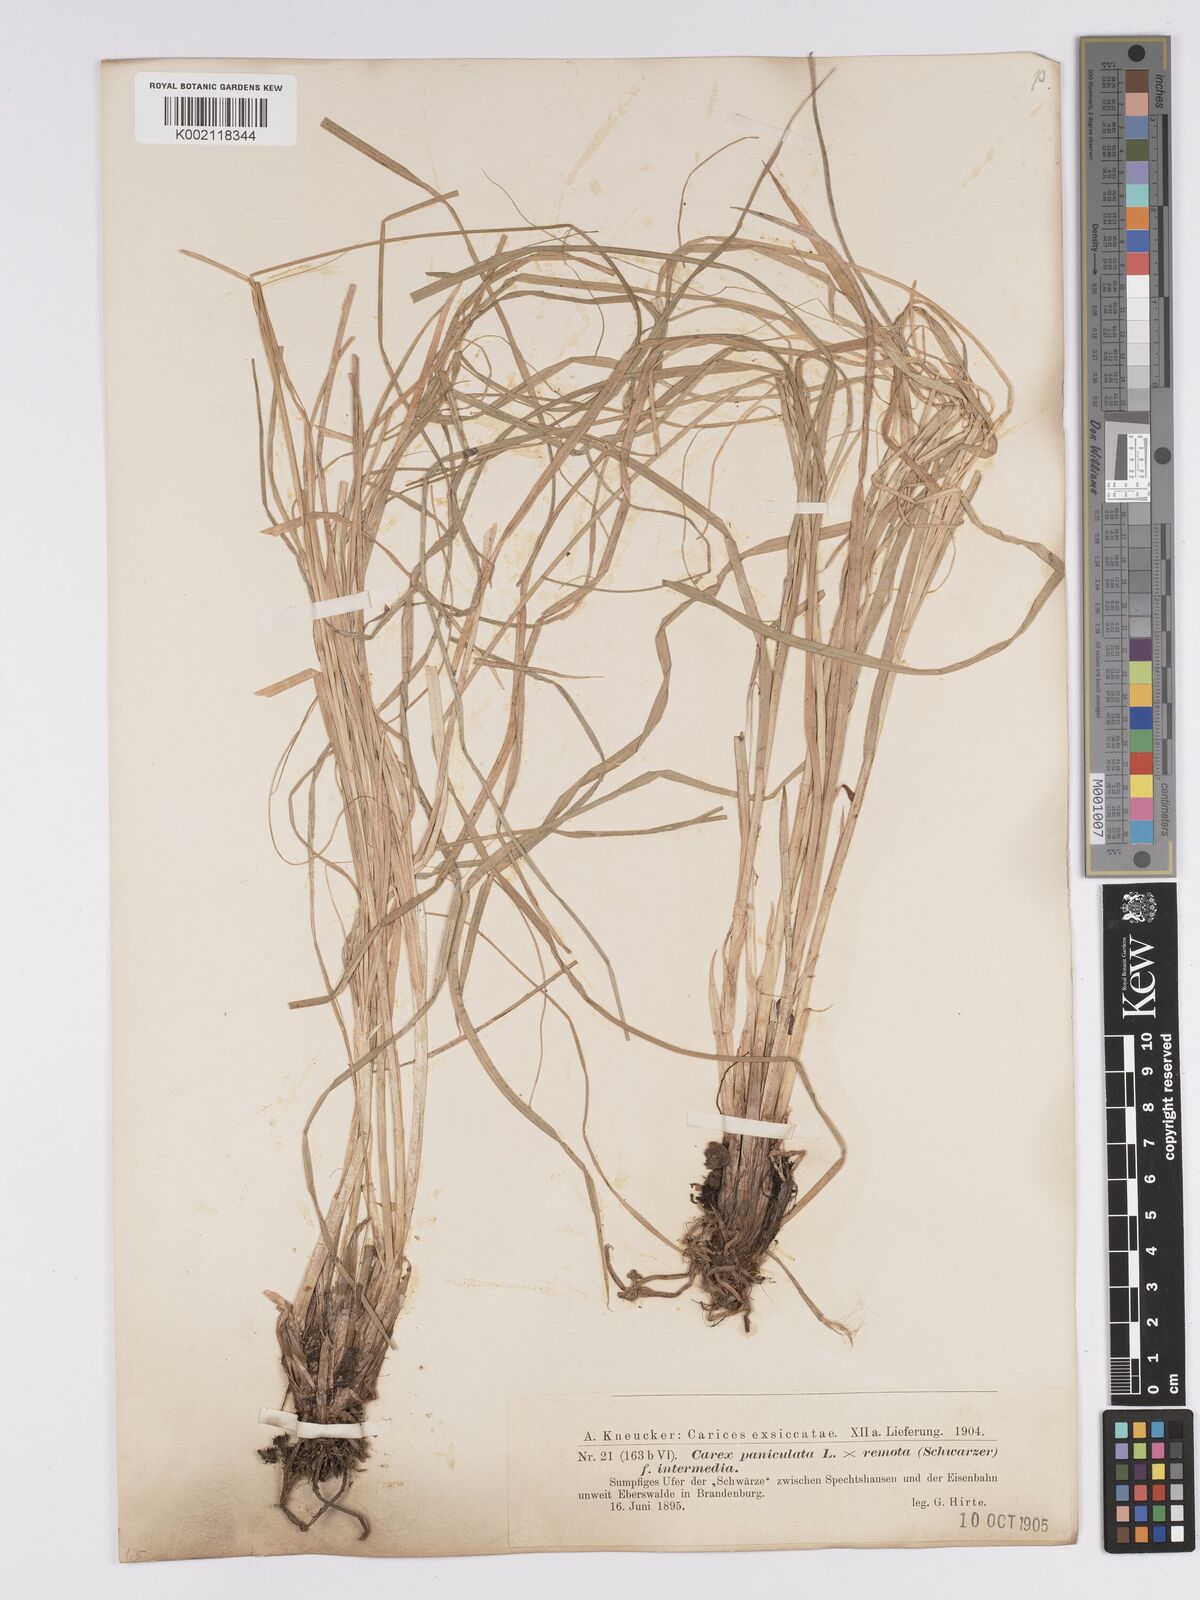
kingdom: Plantae
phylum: Tracheophyta
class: Liliopsida
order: Poales
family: Cyperaceae
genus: Carex
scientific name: Carex paniculata
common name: Greater tussock-sedge
